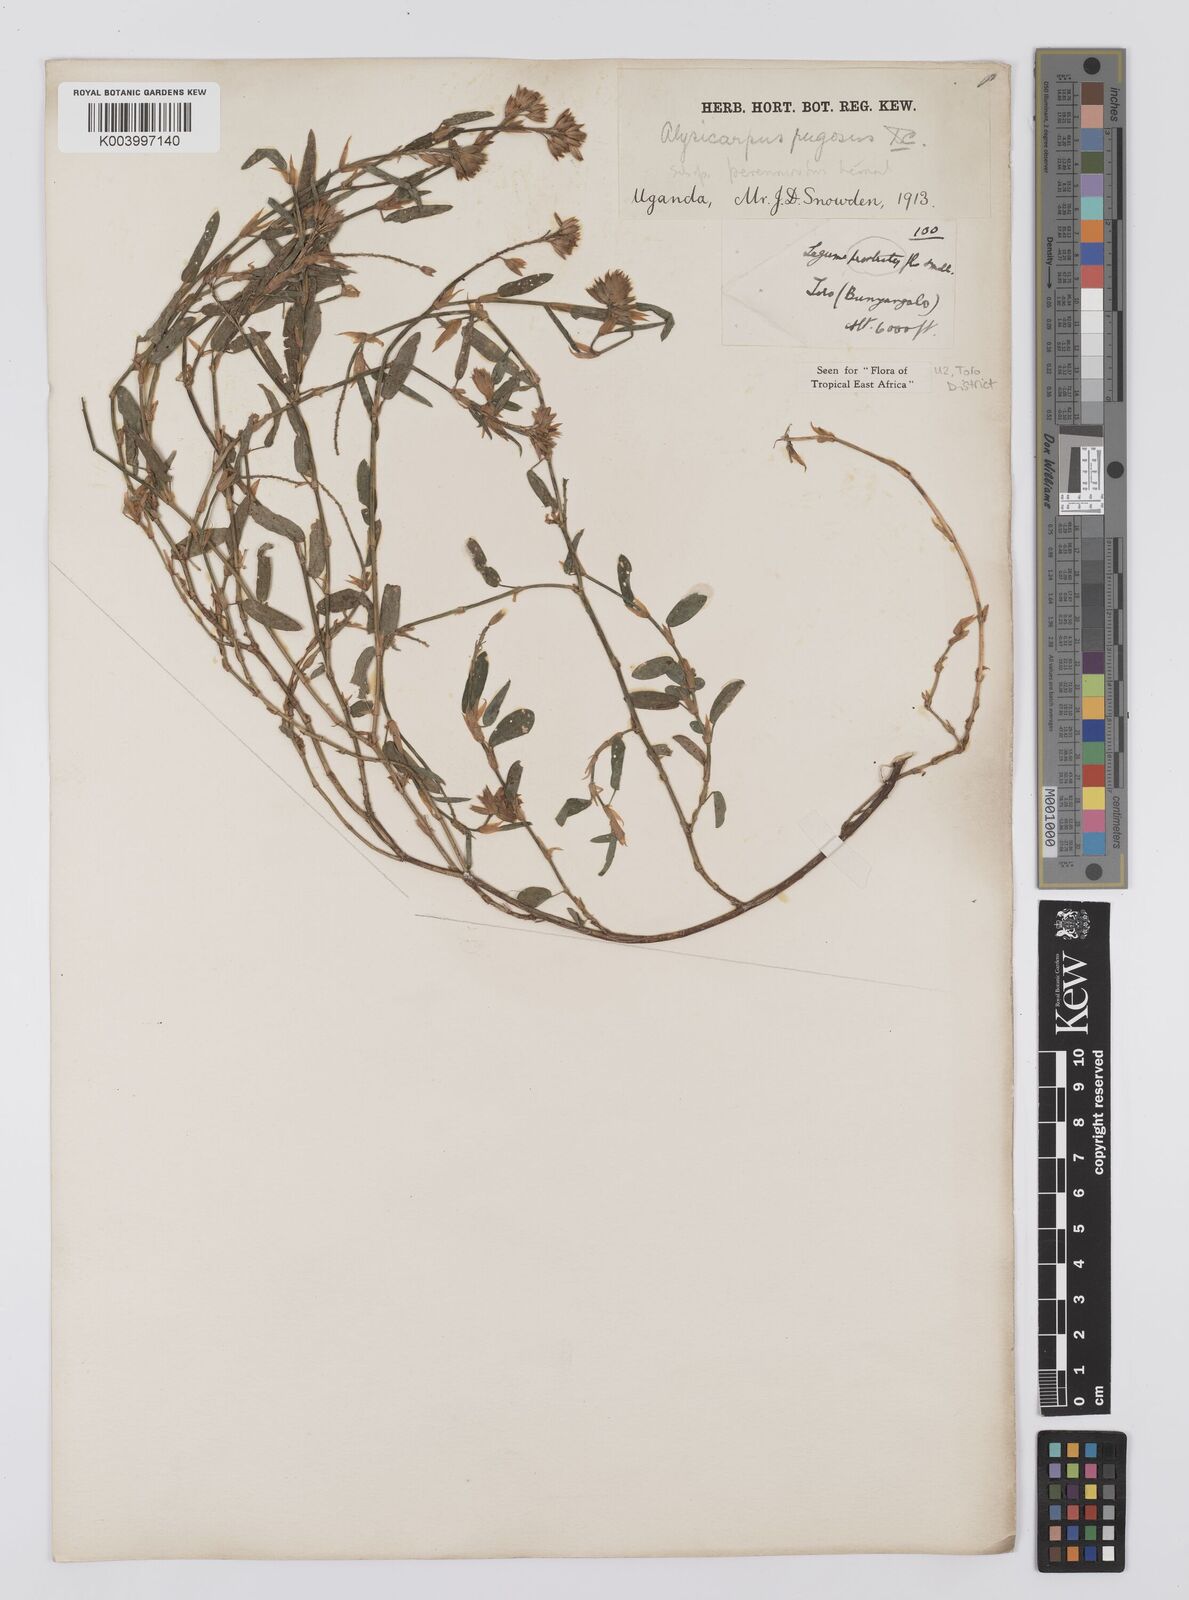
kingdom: Plantae
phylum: Tracheophyta
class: Magnoliopsida
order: Fabales
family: Fabaceae
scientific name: Fabaceae
